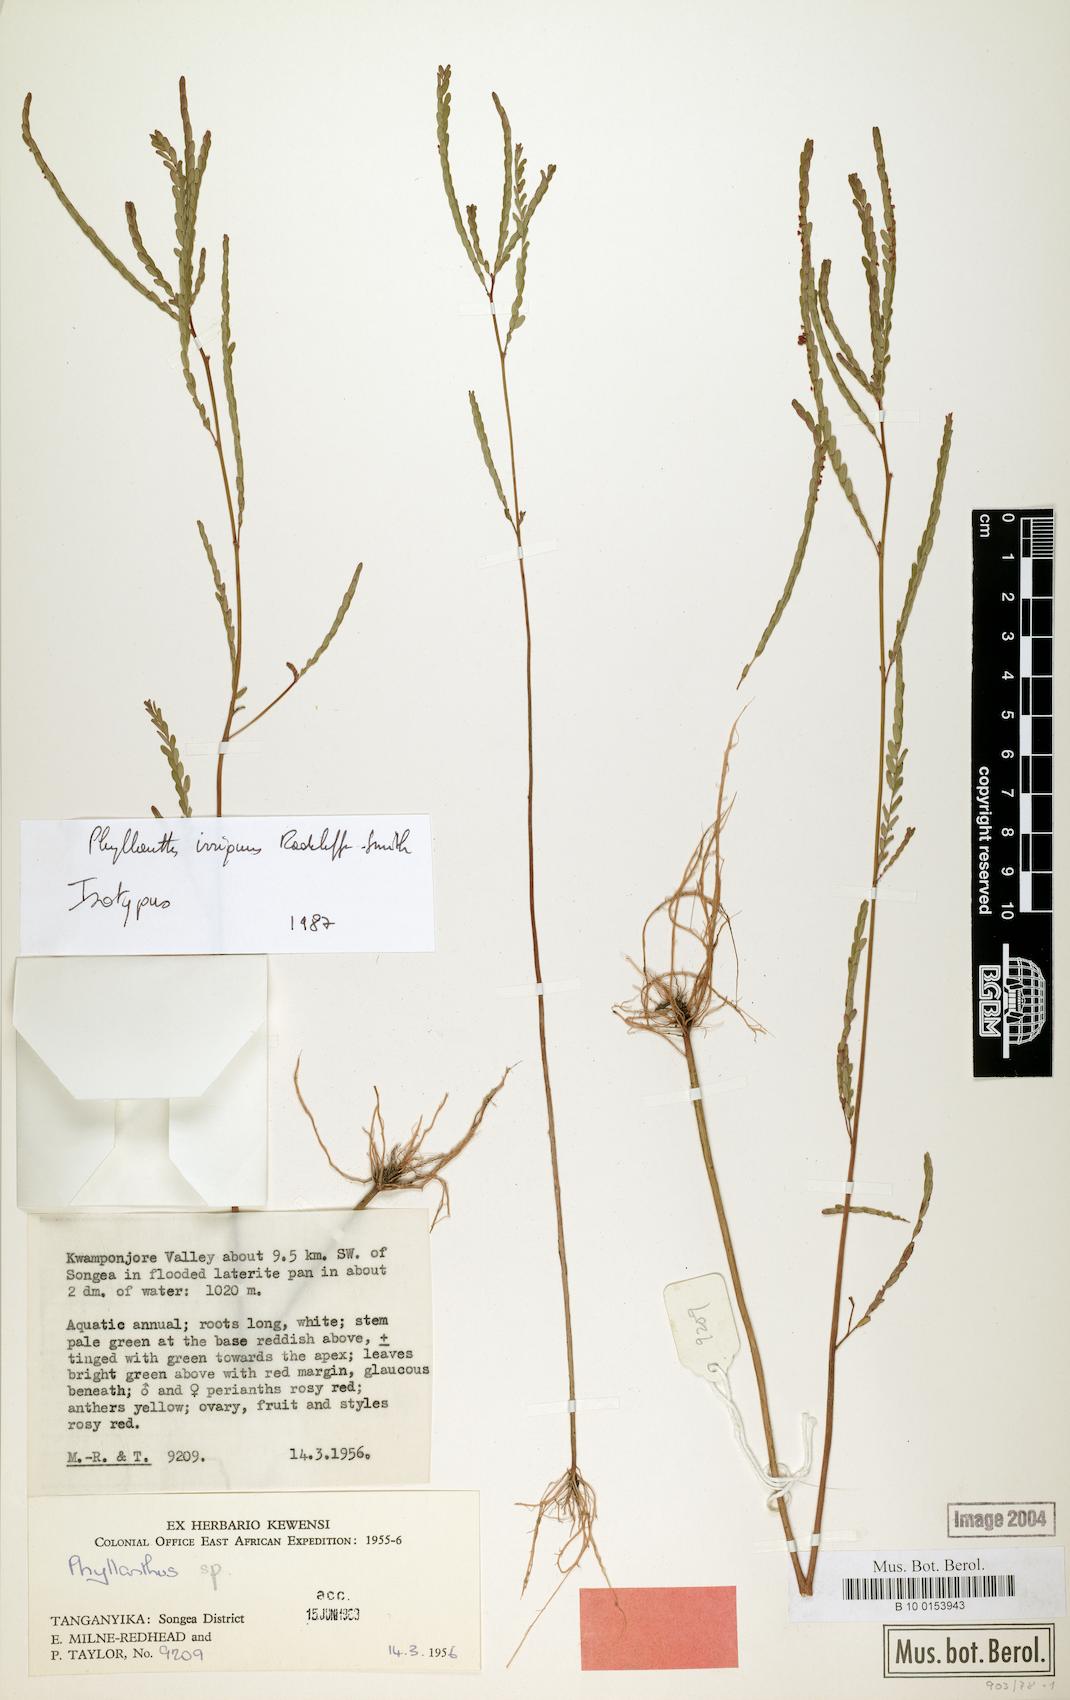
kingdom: Plantae
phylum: Tracheophyta
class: Magnoliopsida
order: Malpighiales
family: Phyllanthaceae
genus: Phyllanthus
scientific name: Phyllanthus irriguus
